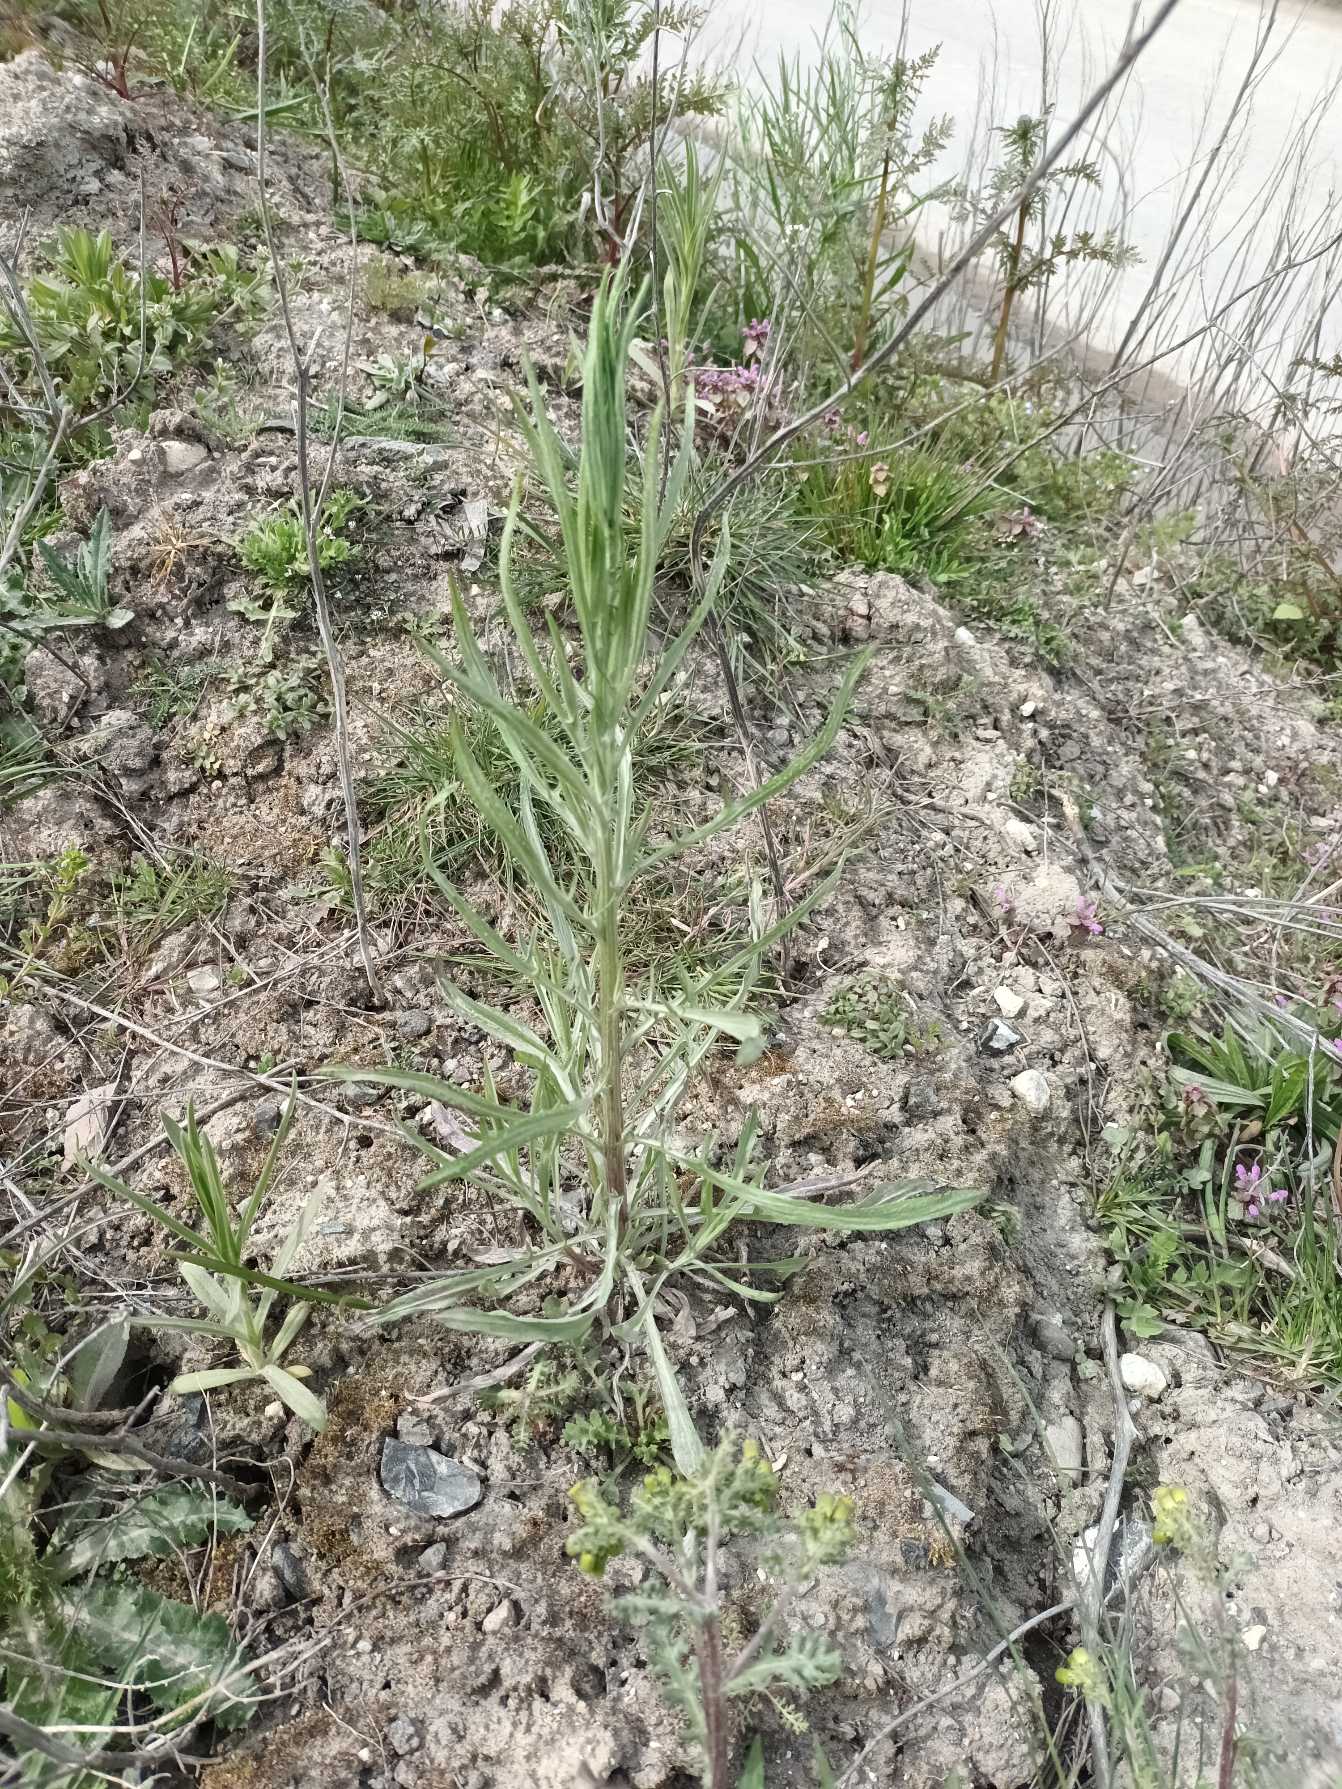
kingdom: Plantae
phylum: Tracheophyta
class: Magnoliopsida
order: Asterales
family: Asteraceae
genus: Centaurea
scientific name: Centaurea cyanus
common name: Kornblomst
